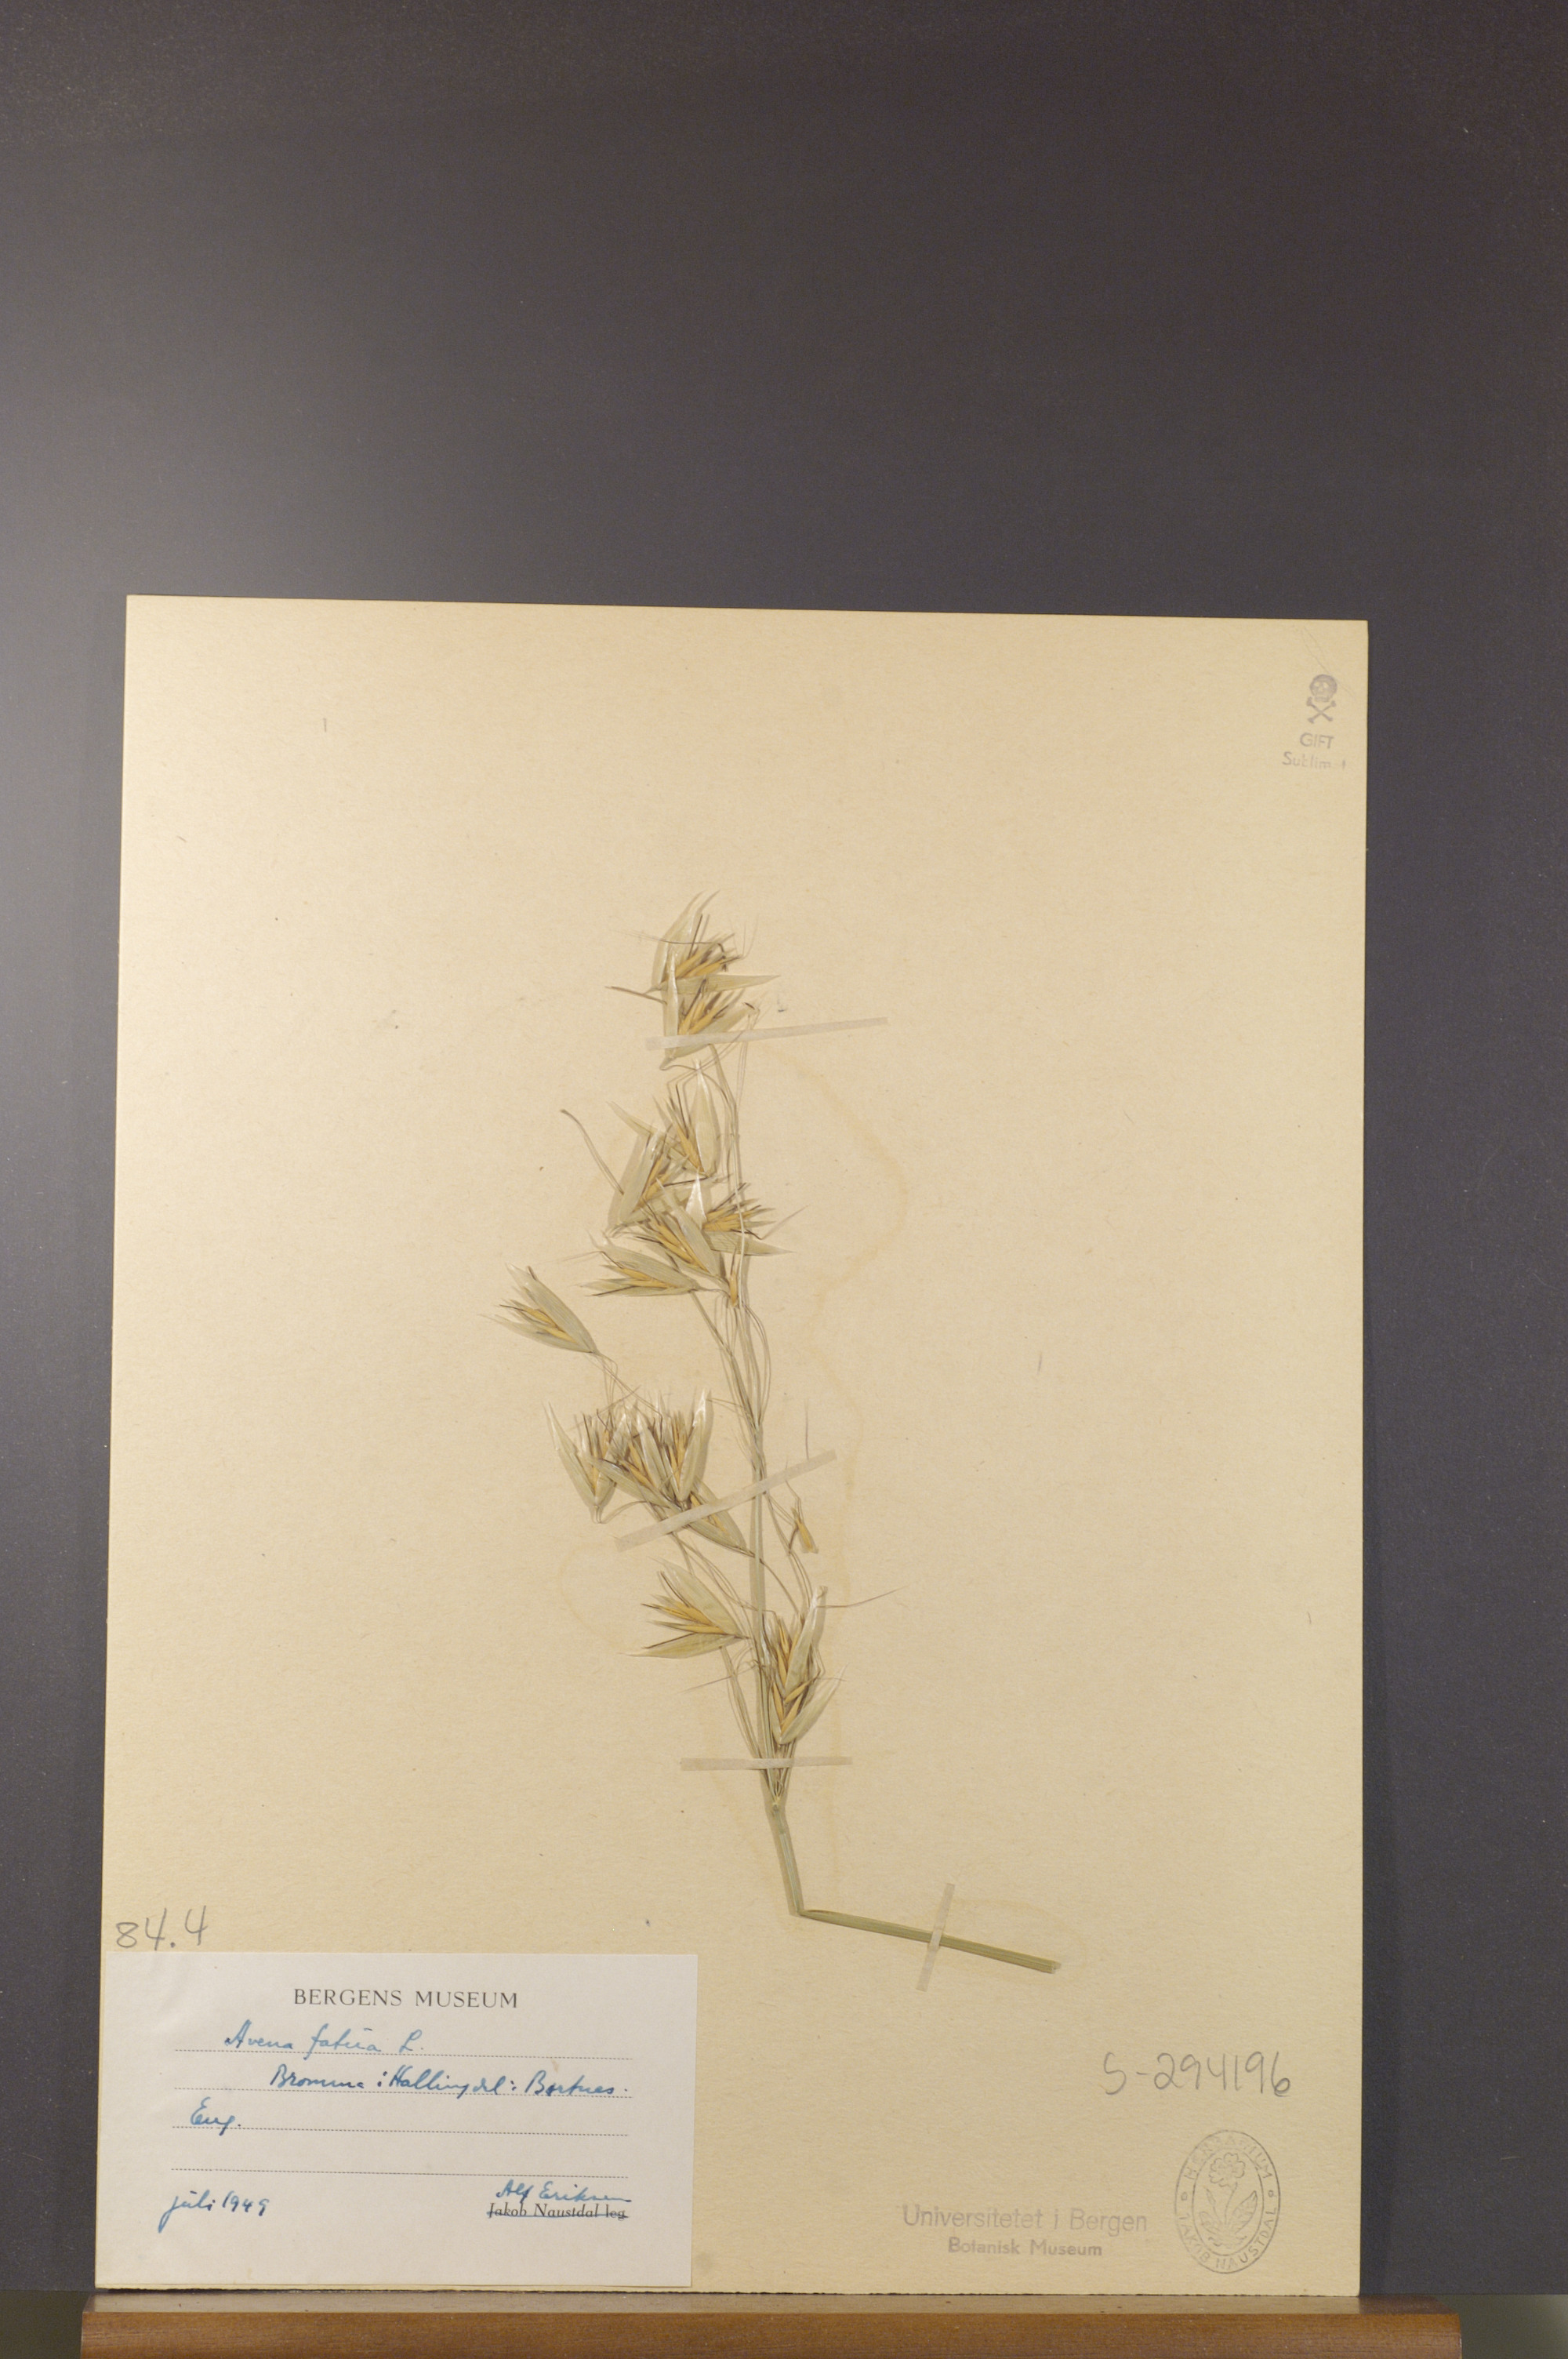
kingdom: Plantae
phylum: Tracheophyta
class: Liliopsida
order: Poales
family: Poaceae
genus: Avena
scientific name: Avena fatua
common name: Wild oat
